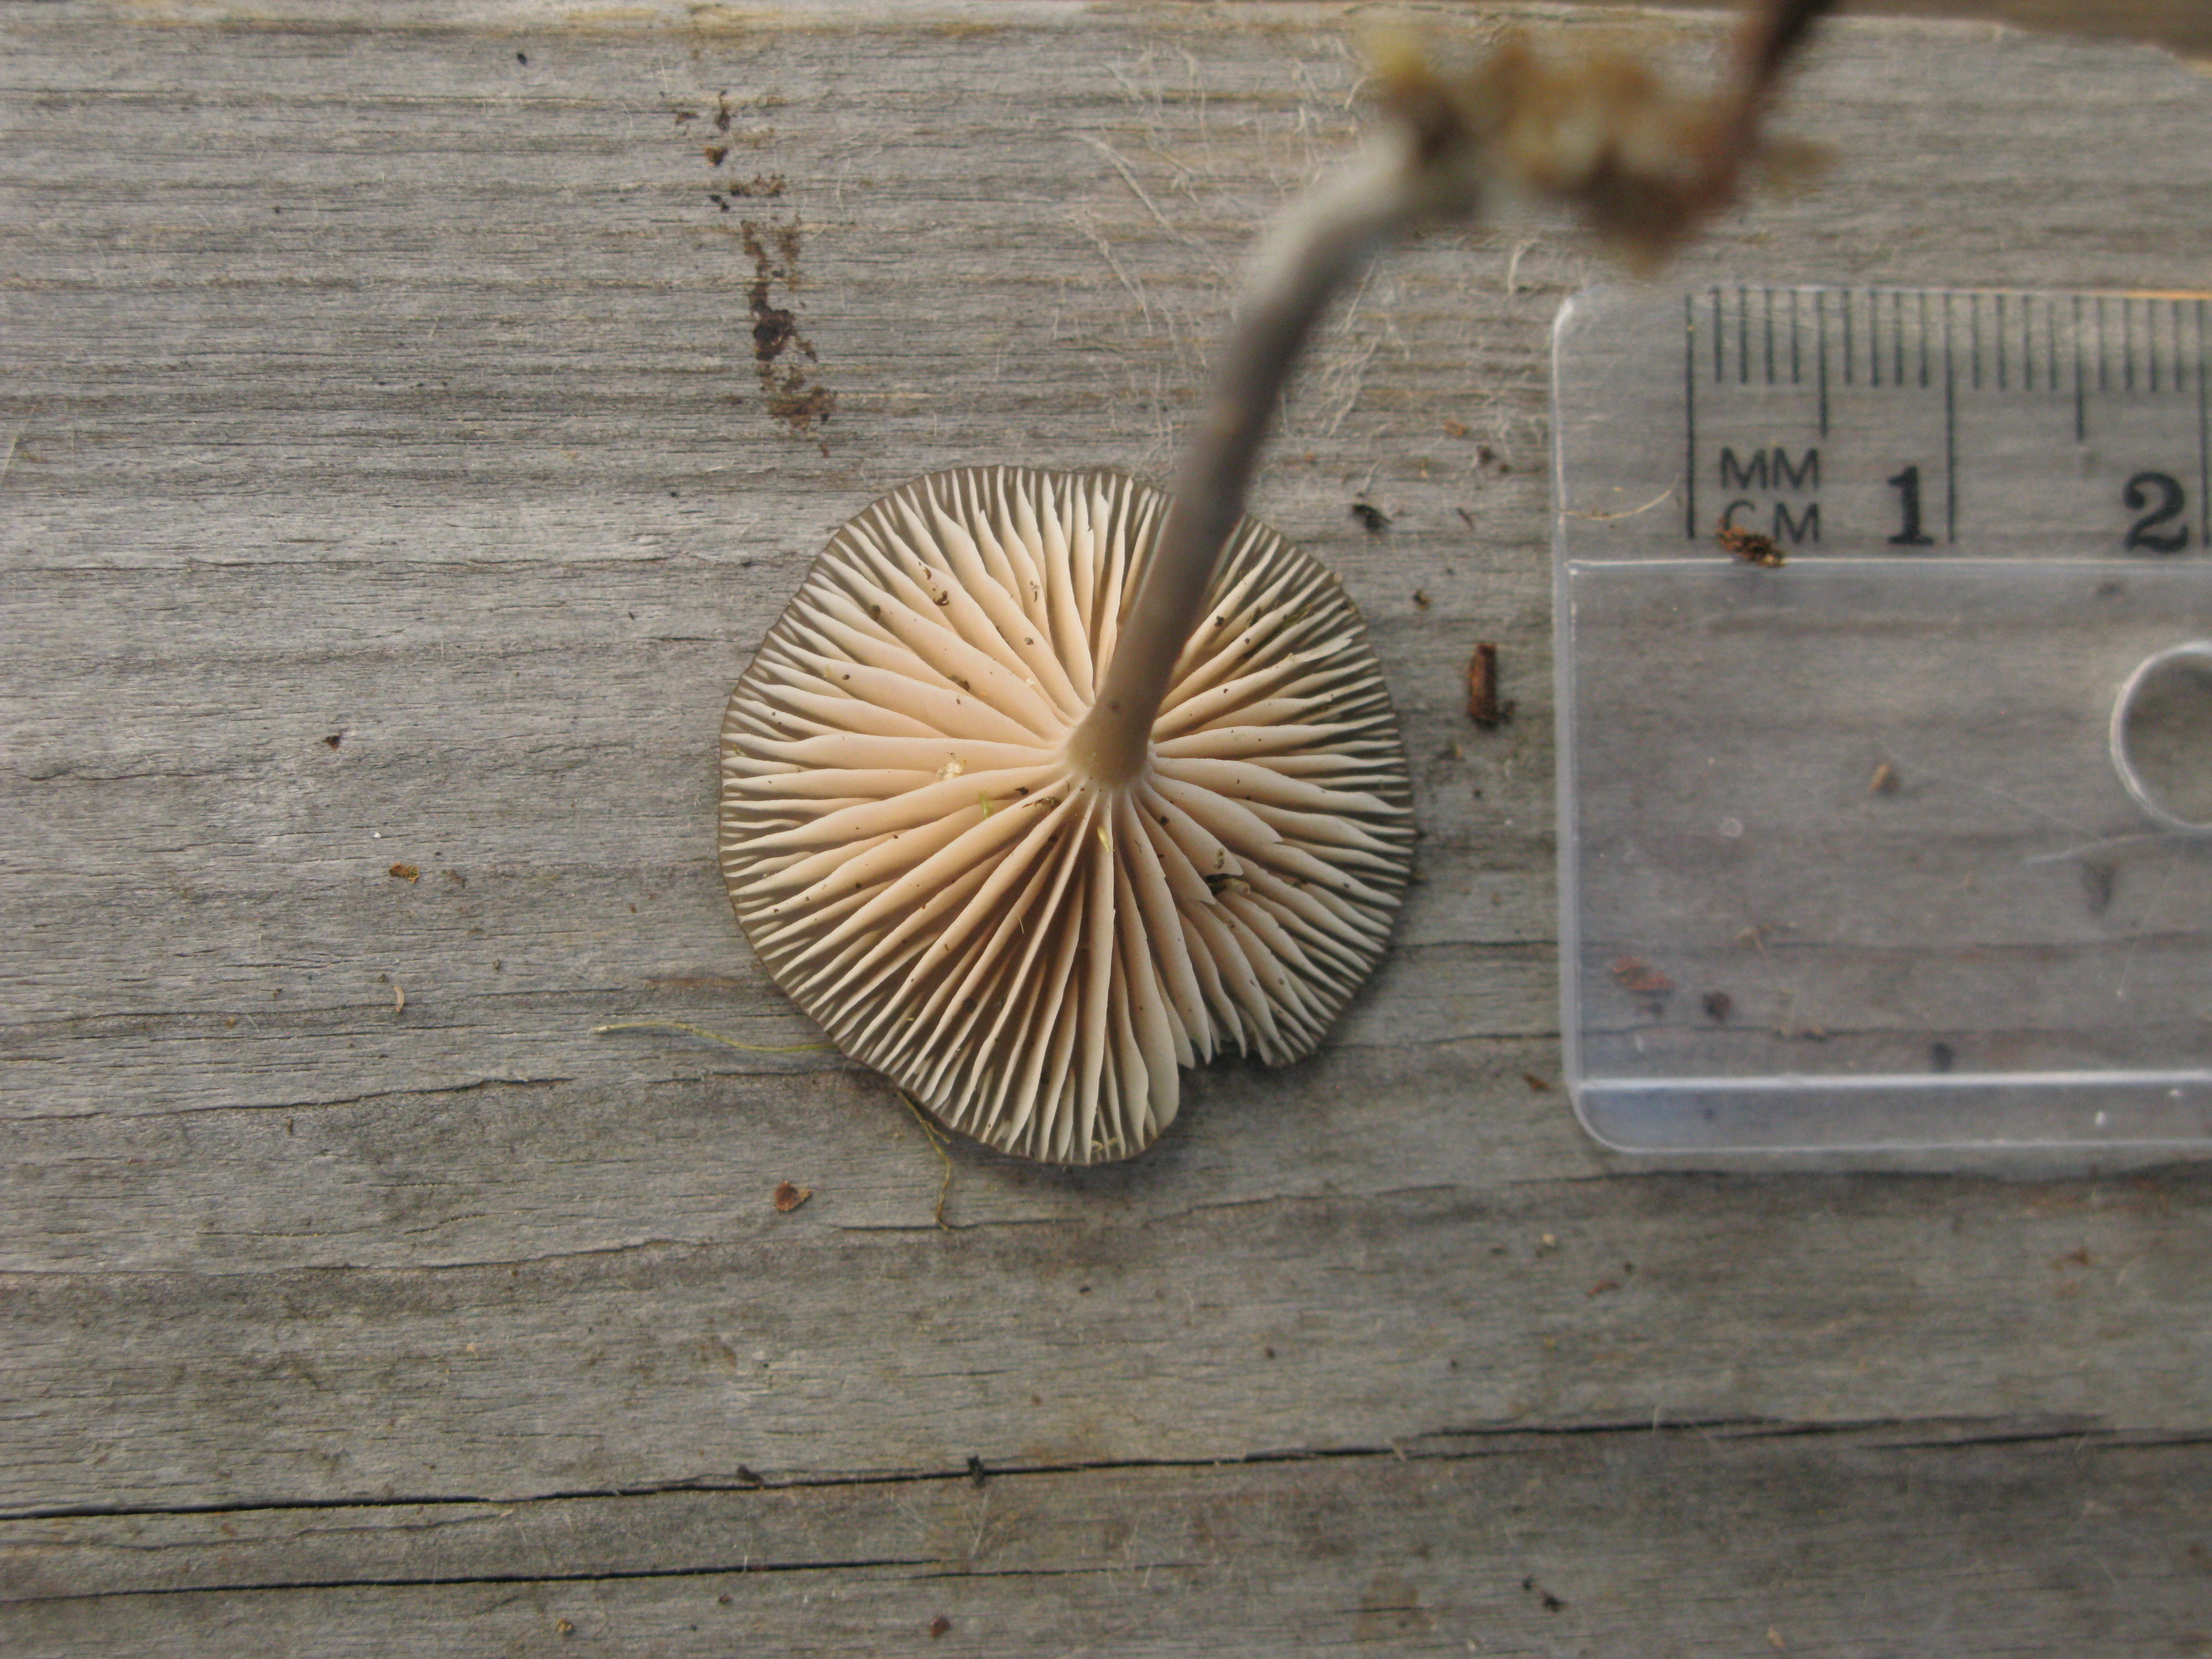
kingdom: Fungi
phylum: Basidiomycota
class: Agaricomycetes
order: Agaricales
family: Entolomataceae
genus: Entoloma
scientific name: Entoloma lividocyanulum
